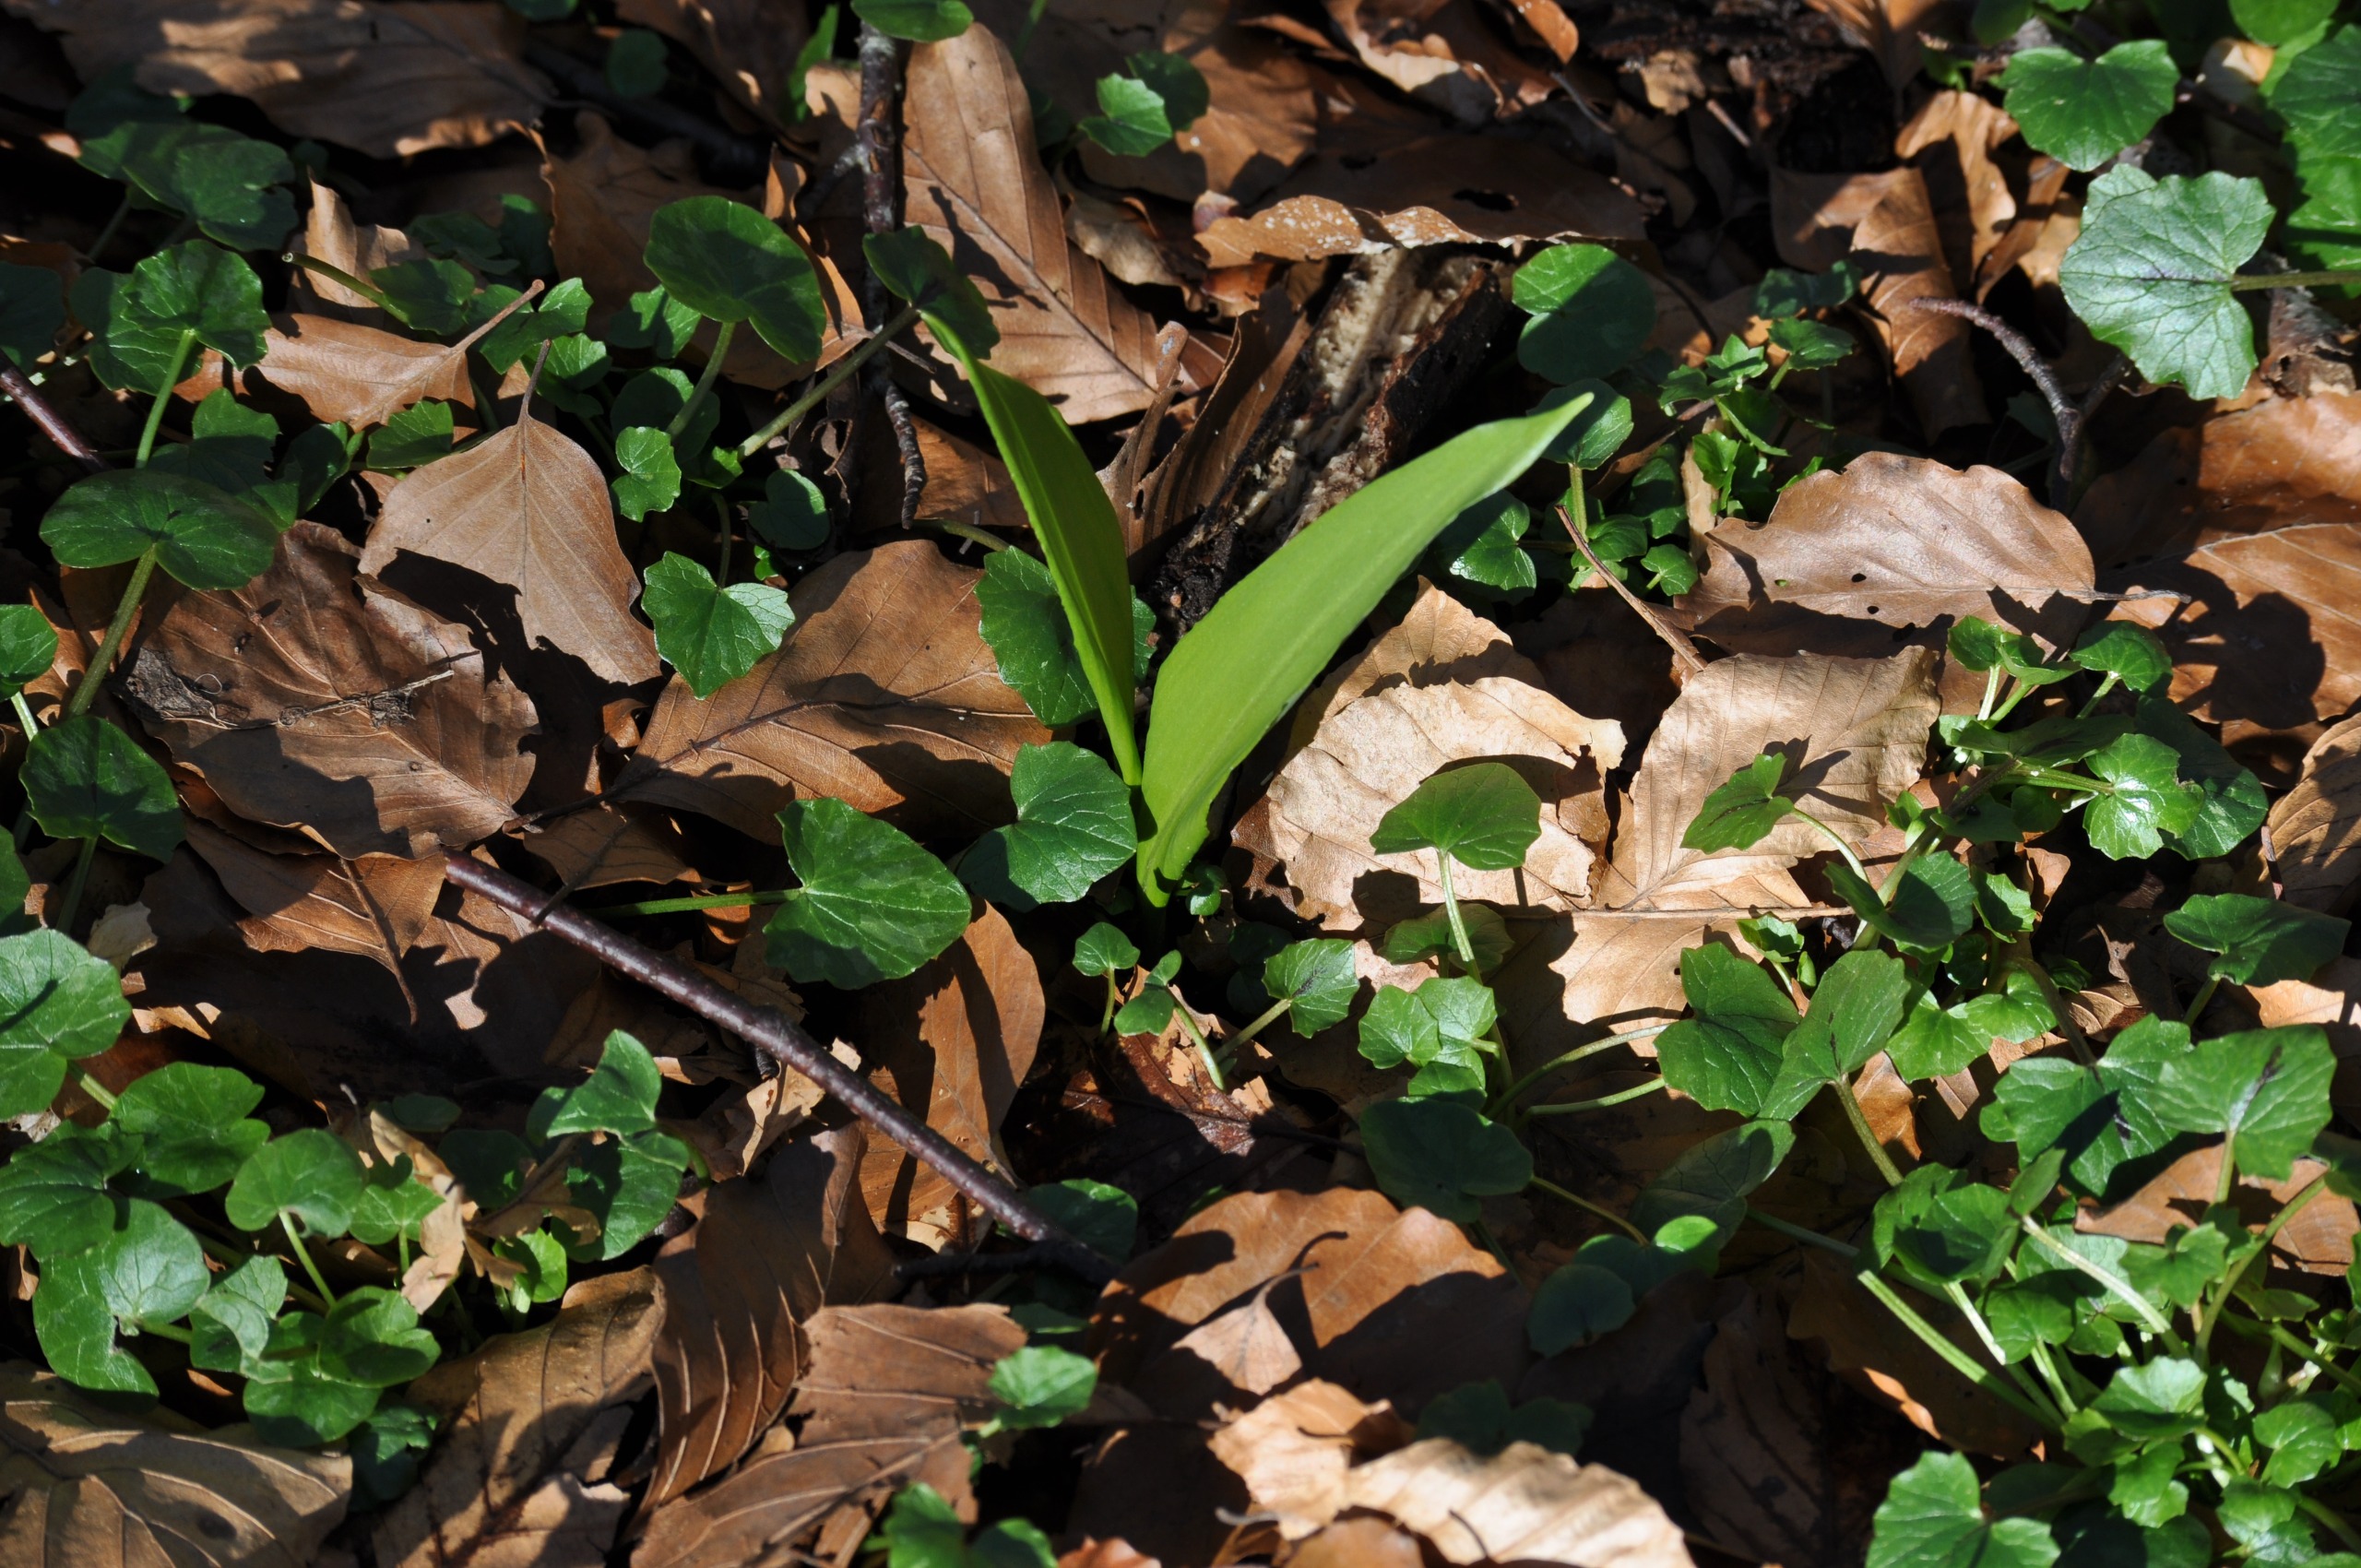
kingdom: Plantae
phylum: Tracheophyta
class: Liliopsida
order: Asparagales
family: Amaryllidaceae
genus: Allium
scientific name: Allium ursinum
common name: Rams-løg
